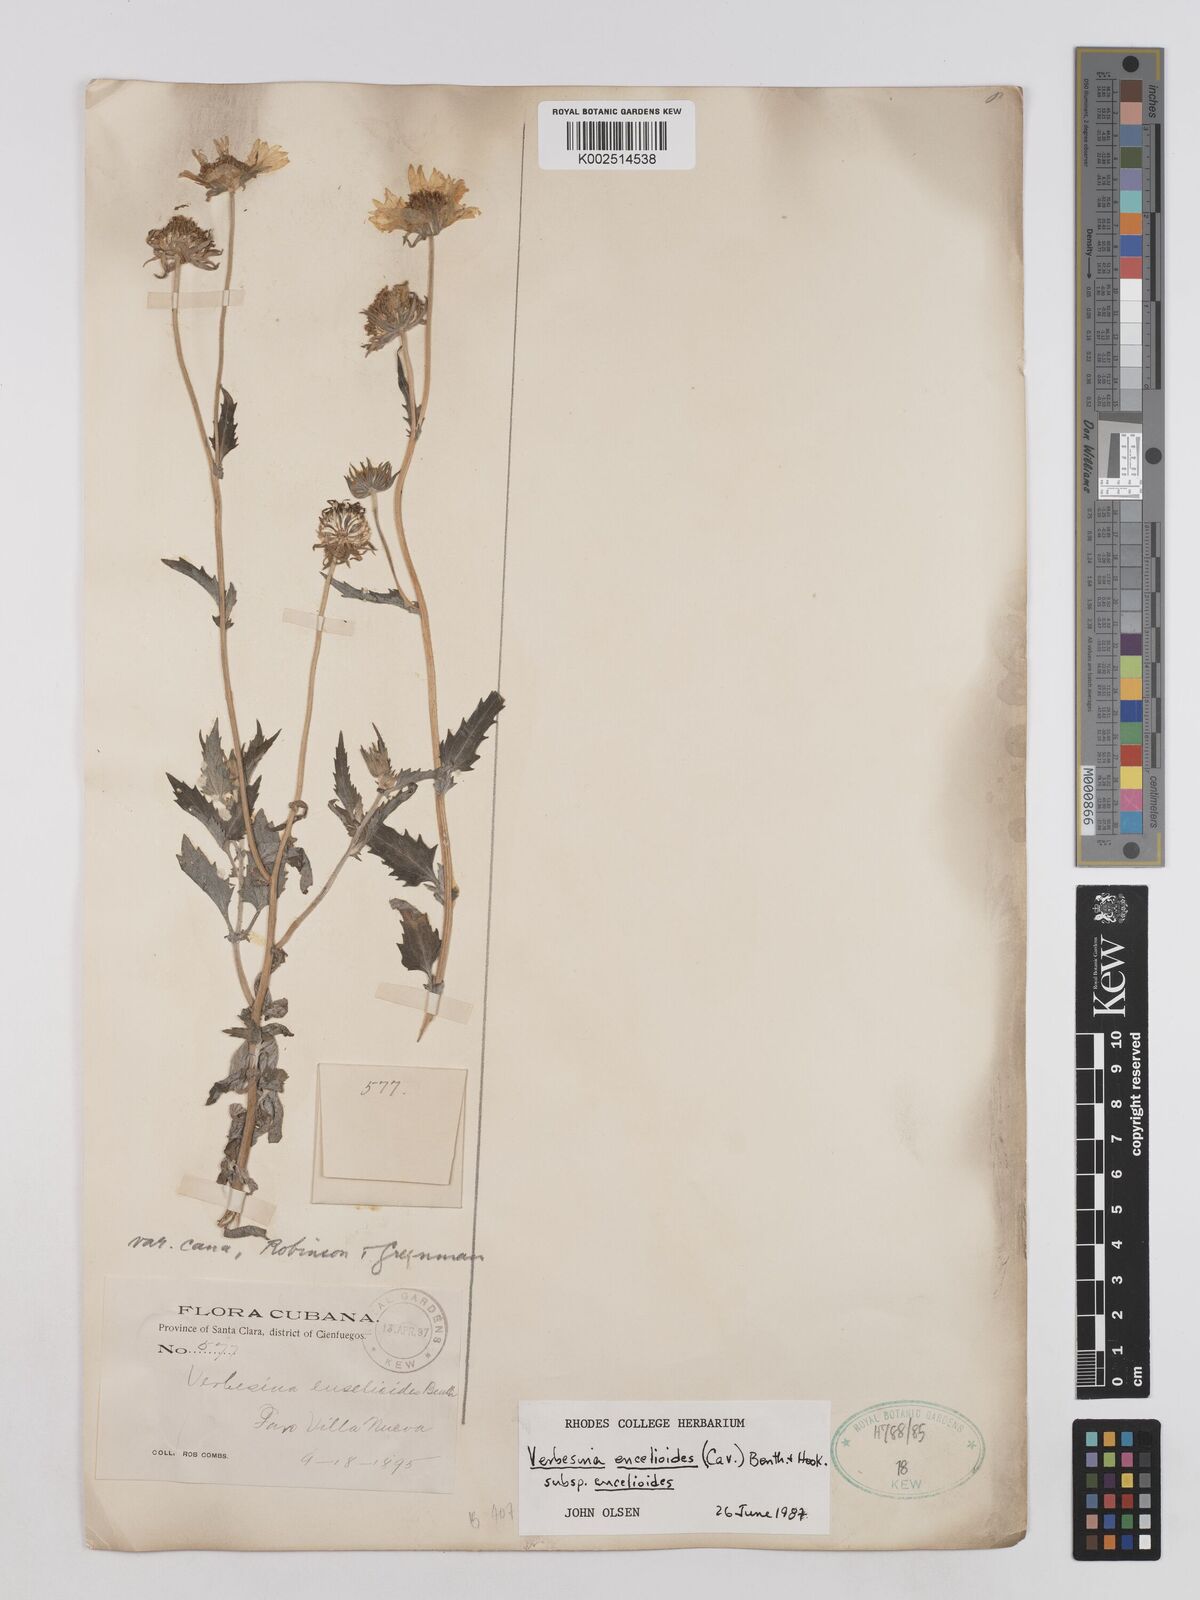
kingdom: Plantae
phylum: Tracheophyta
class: Magnoliopsida
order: Asterales
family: Asteraceae
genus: Verbesina
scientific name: Verbesina encelioides
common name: Golden crownbeard
